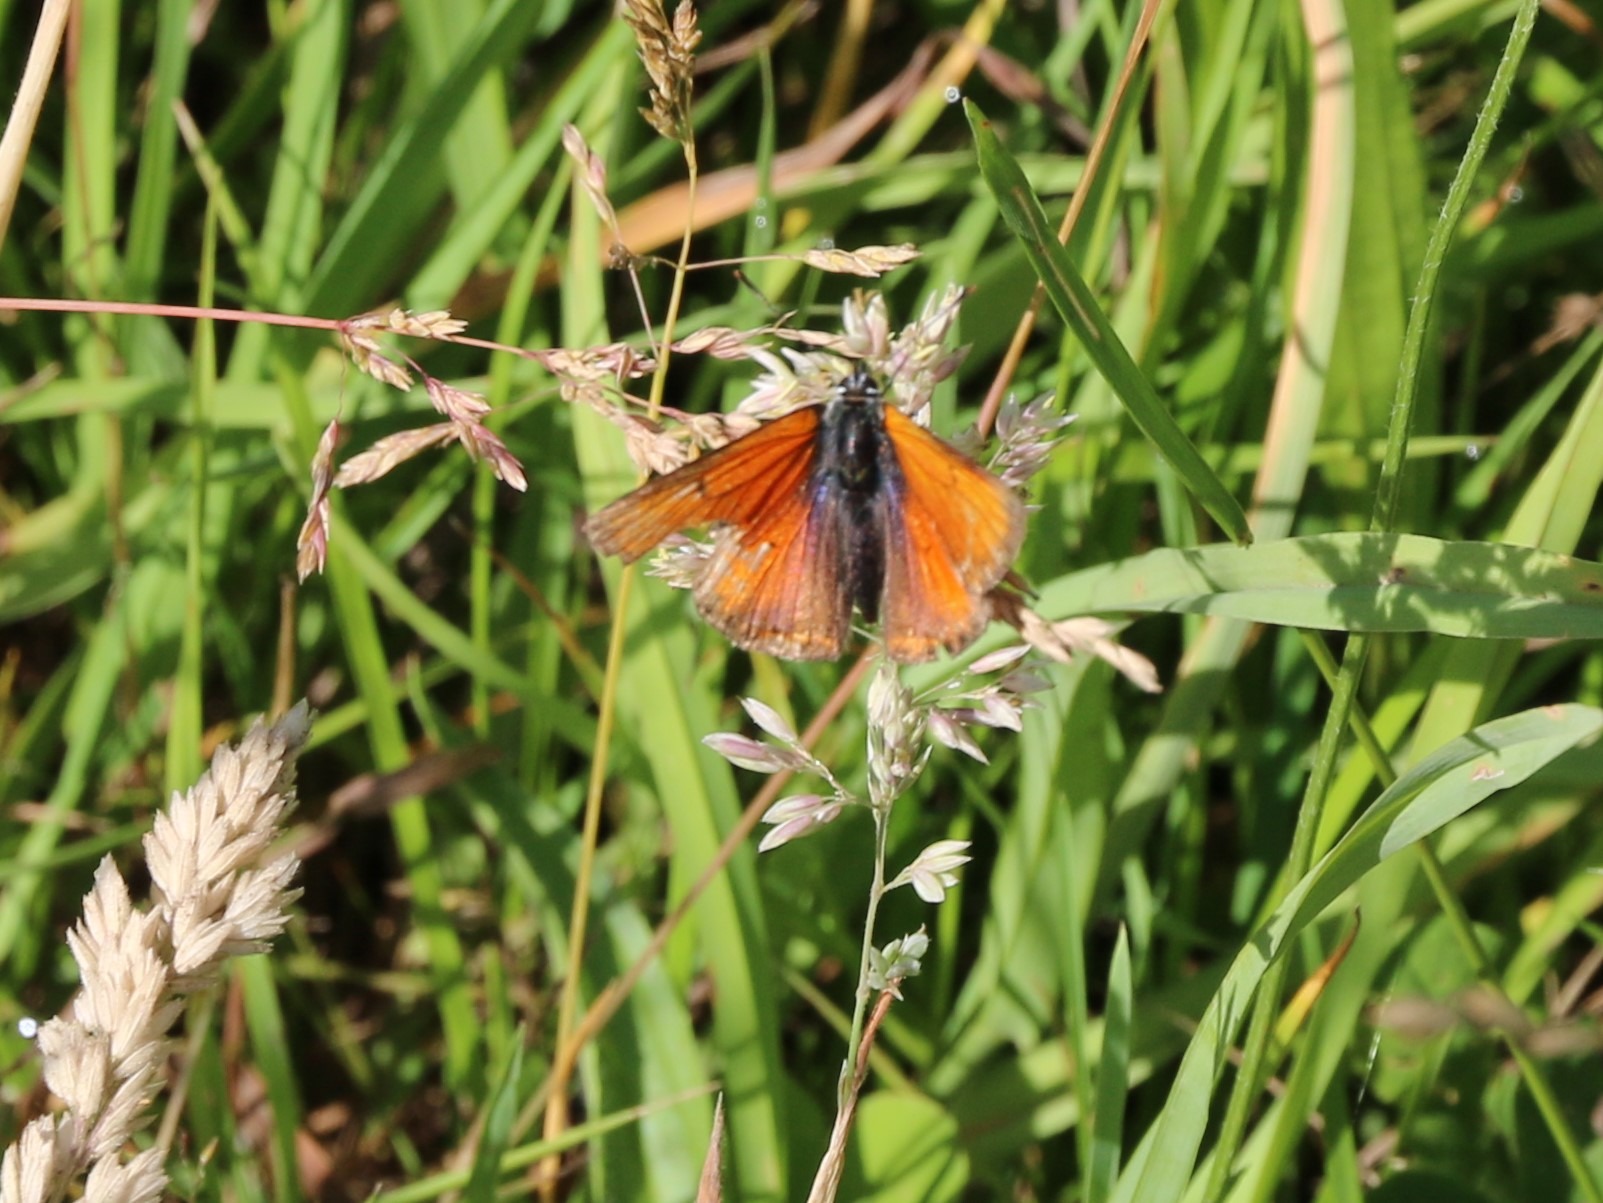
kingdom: Animalia
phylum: Arthropoda
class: Insecta
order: Lepidoptera
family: Lycaenidae
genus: Palaeochrysophanus
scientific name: Palaeochrysophanus hippothoe
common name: Violetrandet ildfugl
